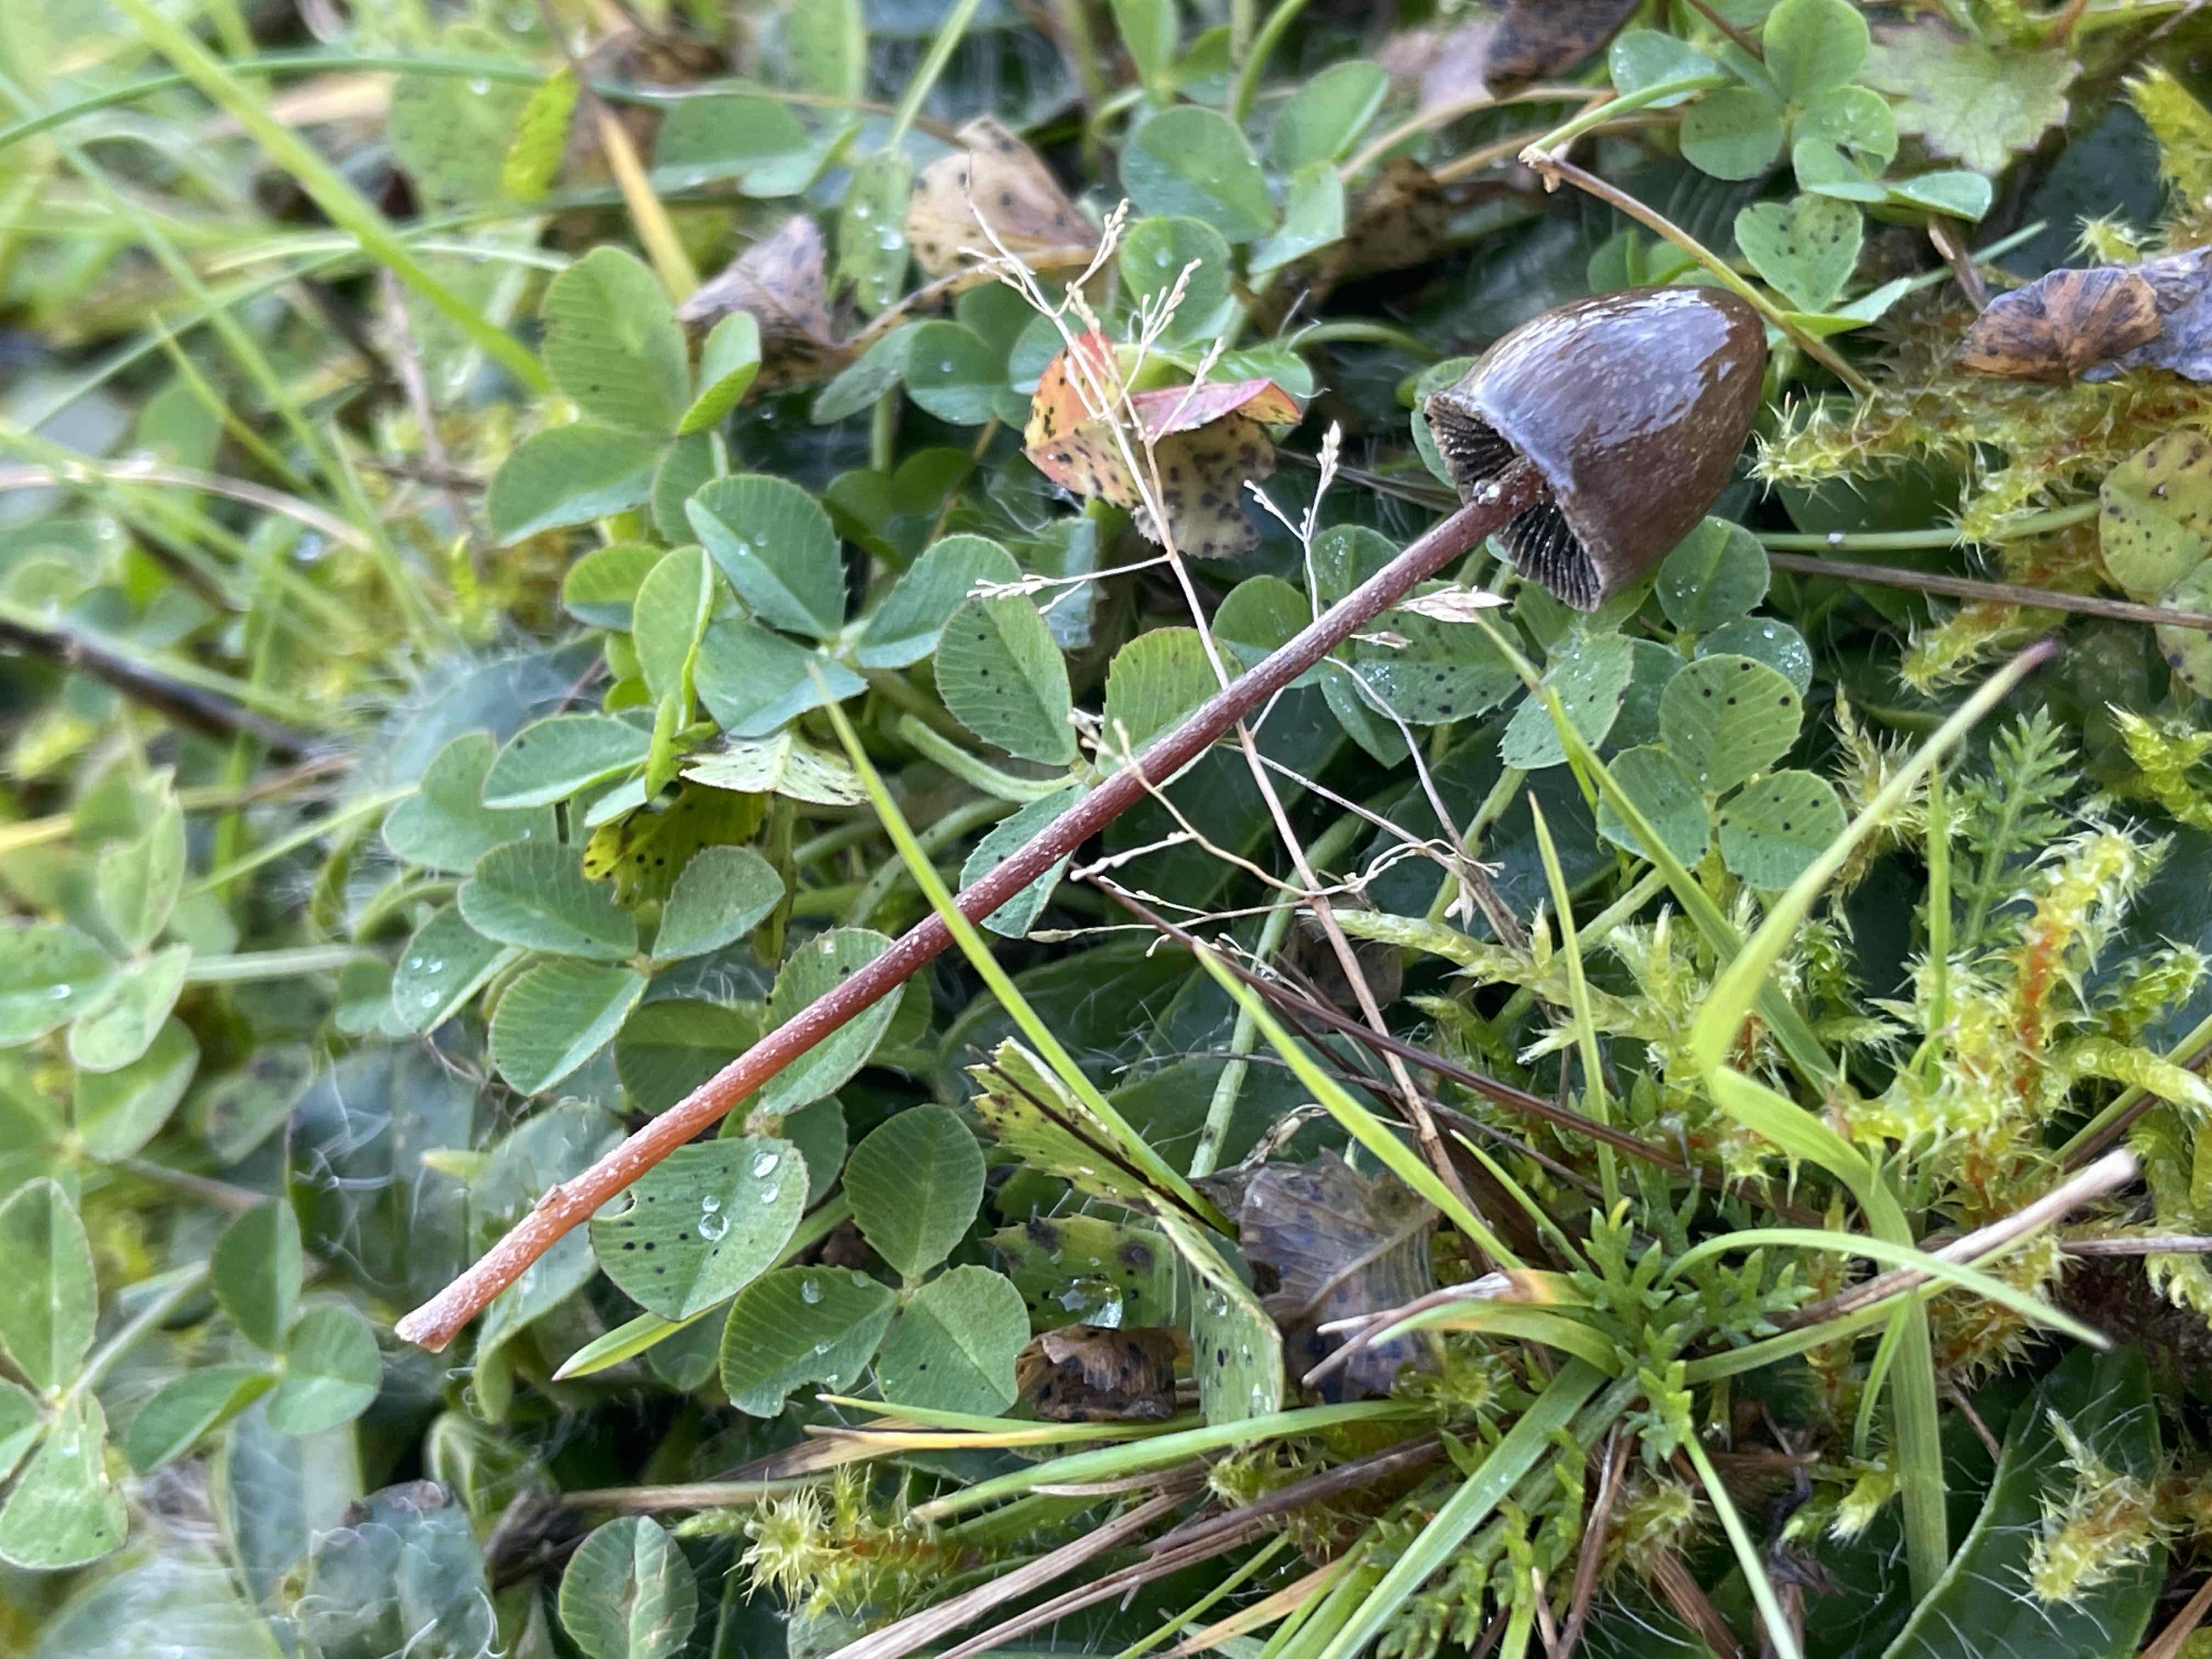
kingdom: Fungi
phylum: Basidiomycota
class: Agaricomycetes
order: Agaricales
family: Bolbitiaceae
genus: Panaeolus
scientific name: Panaeolus acuminatus
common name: høj glanshat
